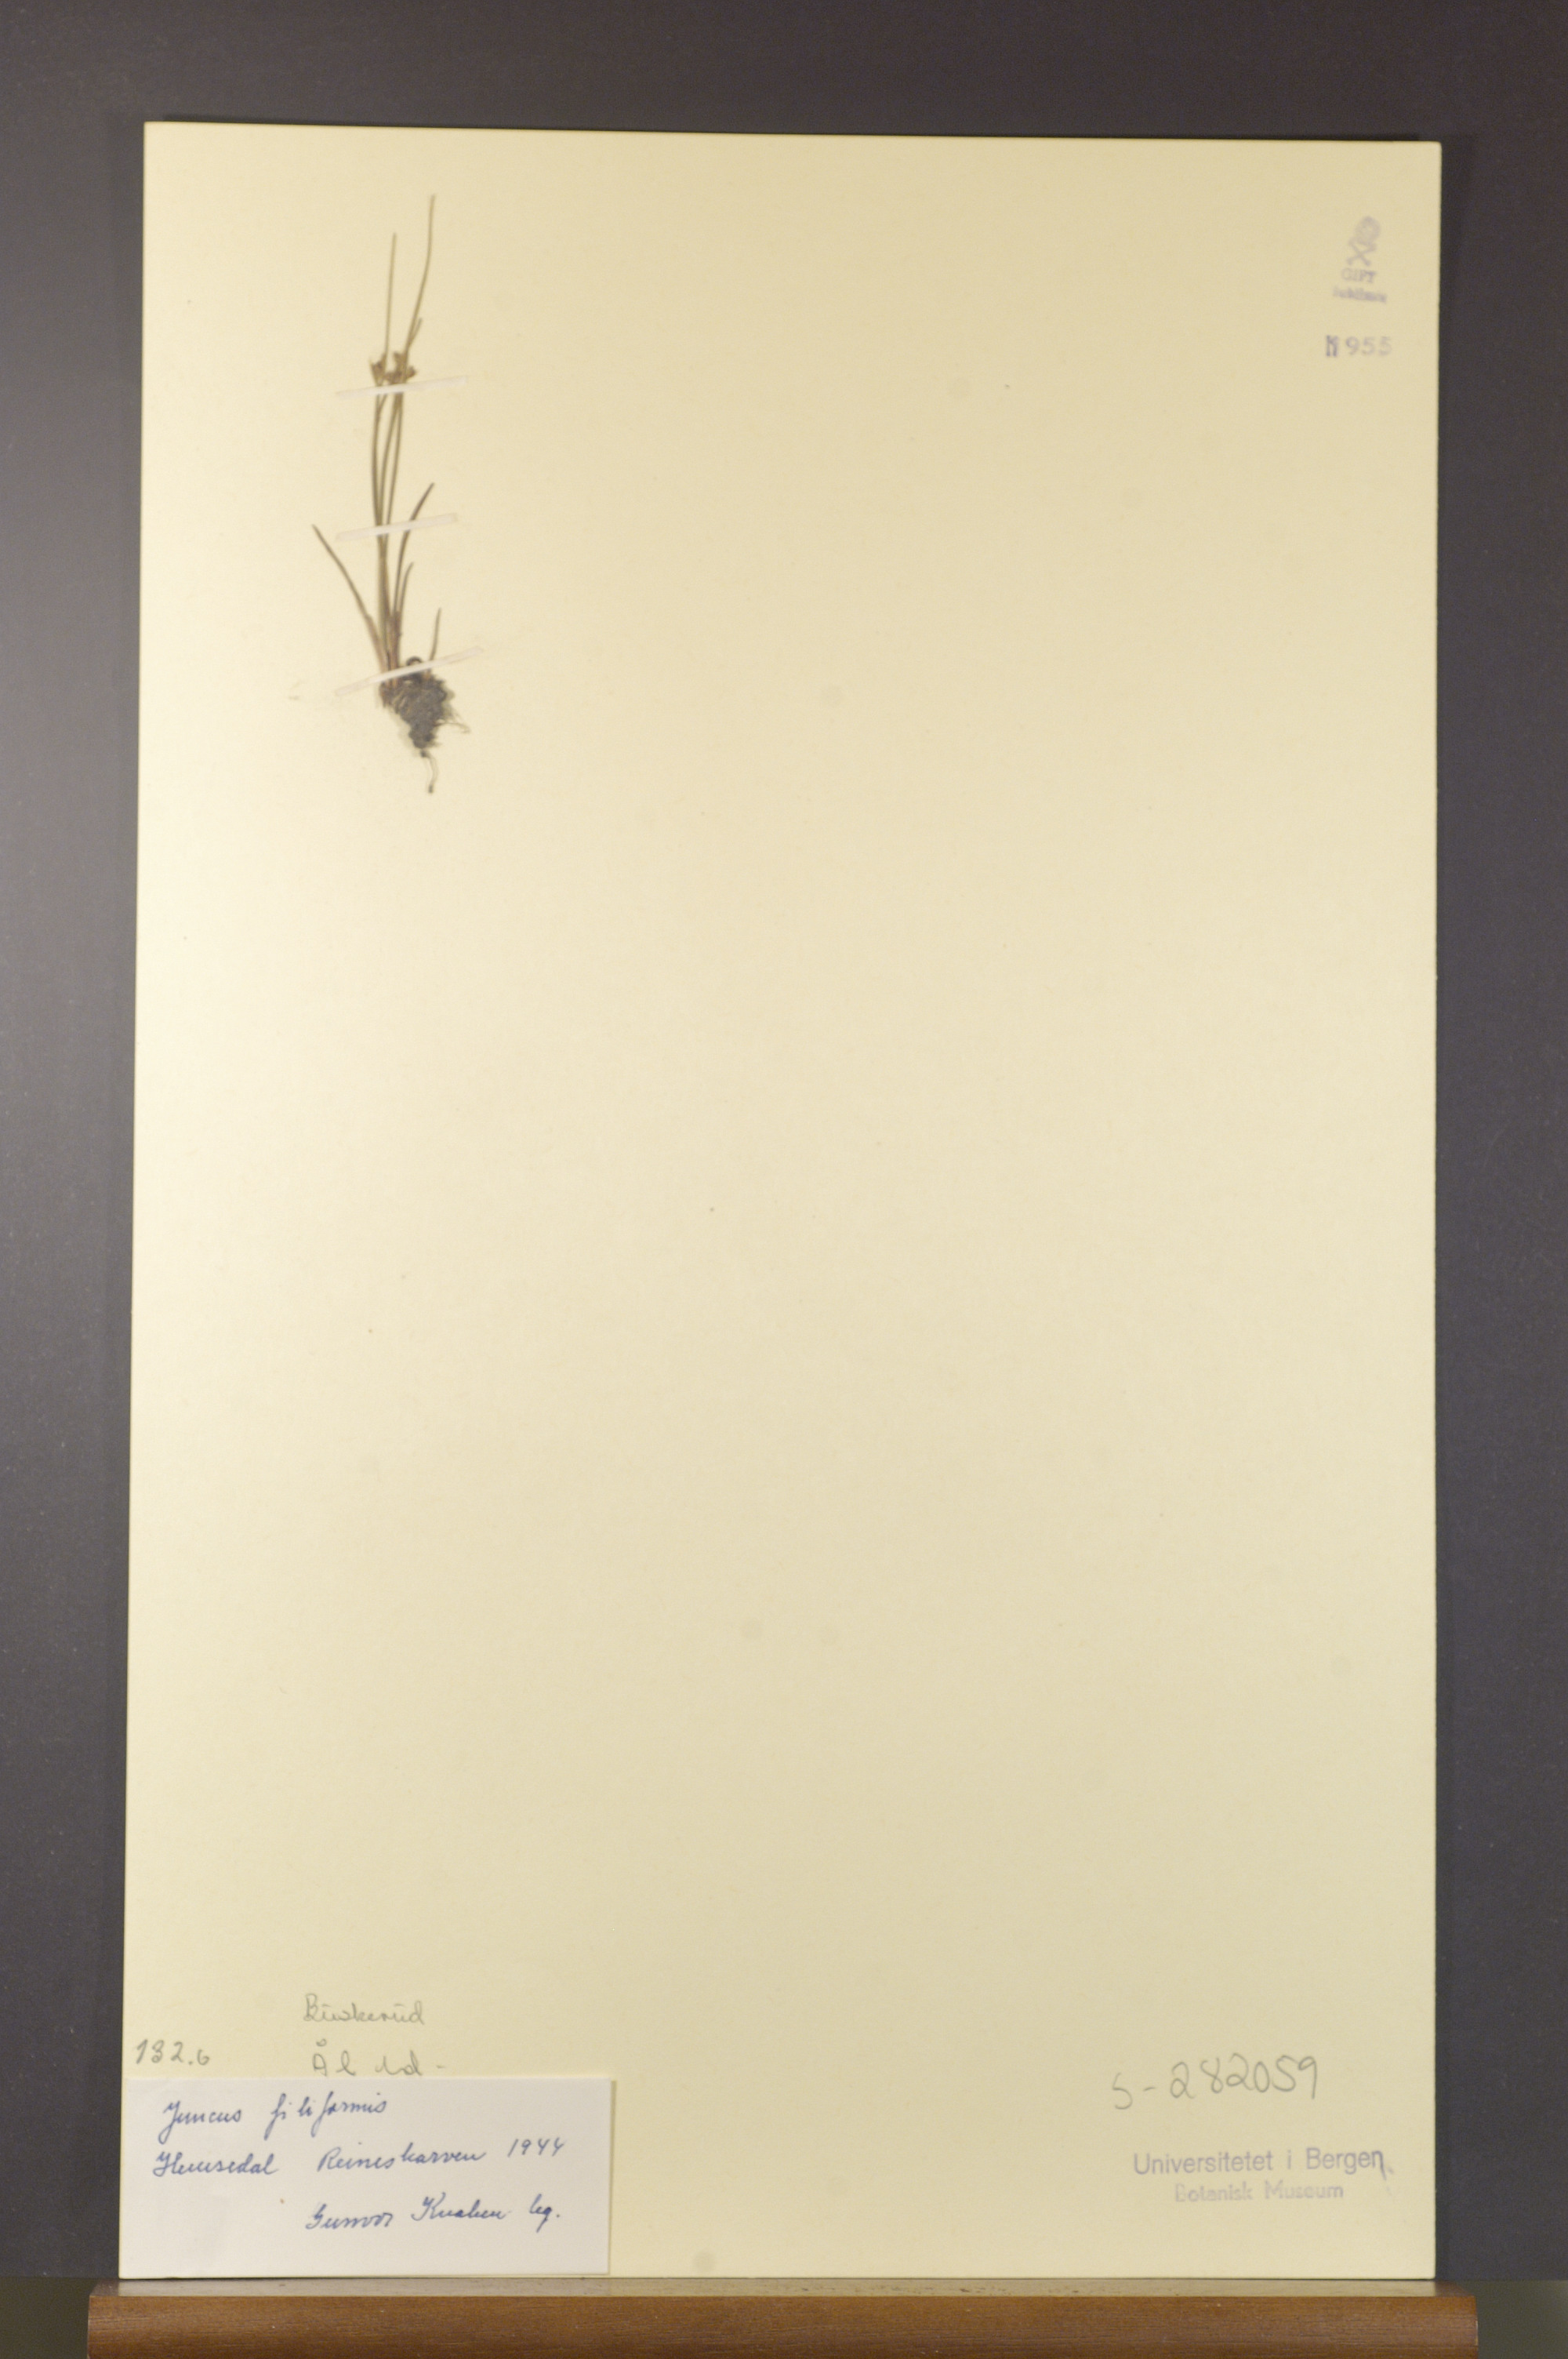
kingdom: Plantae
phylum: Tracheophyta
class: Liliopsida
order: Poales
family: Juncaceae
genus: Juncus
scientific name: Juncus filiformis
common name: Thread rush
